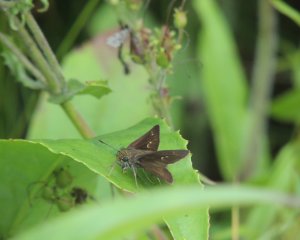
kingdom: Animalia
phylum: Arthropoda
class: Insecta
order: Lepidoptera
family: Hesperiidae
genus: Euphyes
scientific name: Euphyes vestris
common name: Dun Skipper
